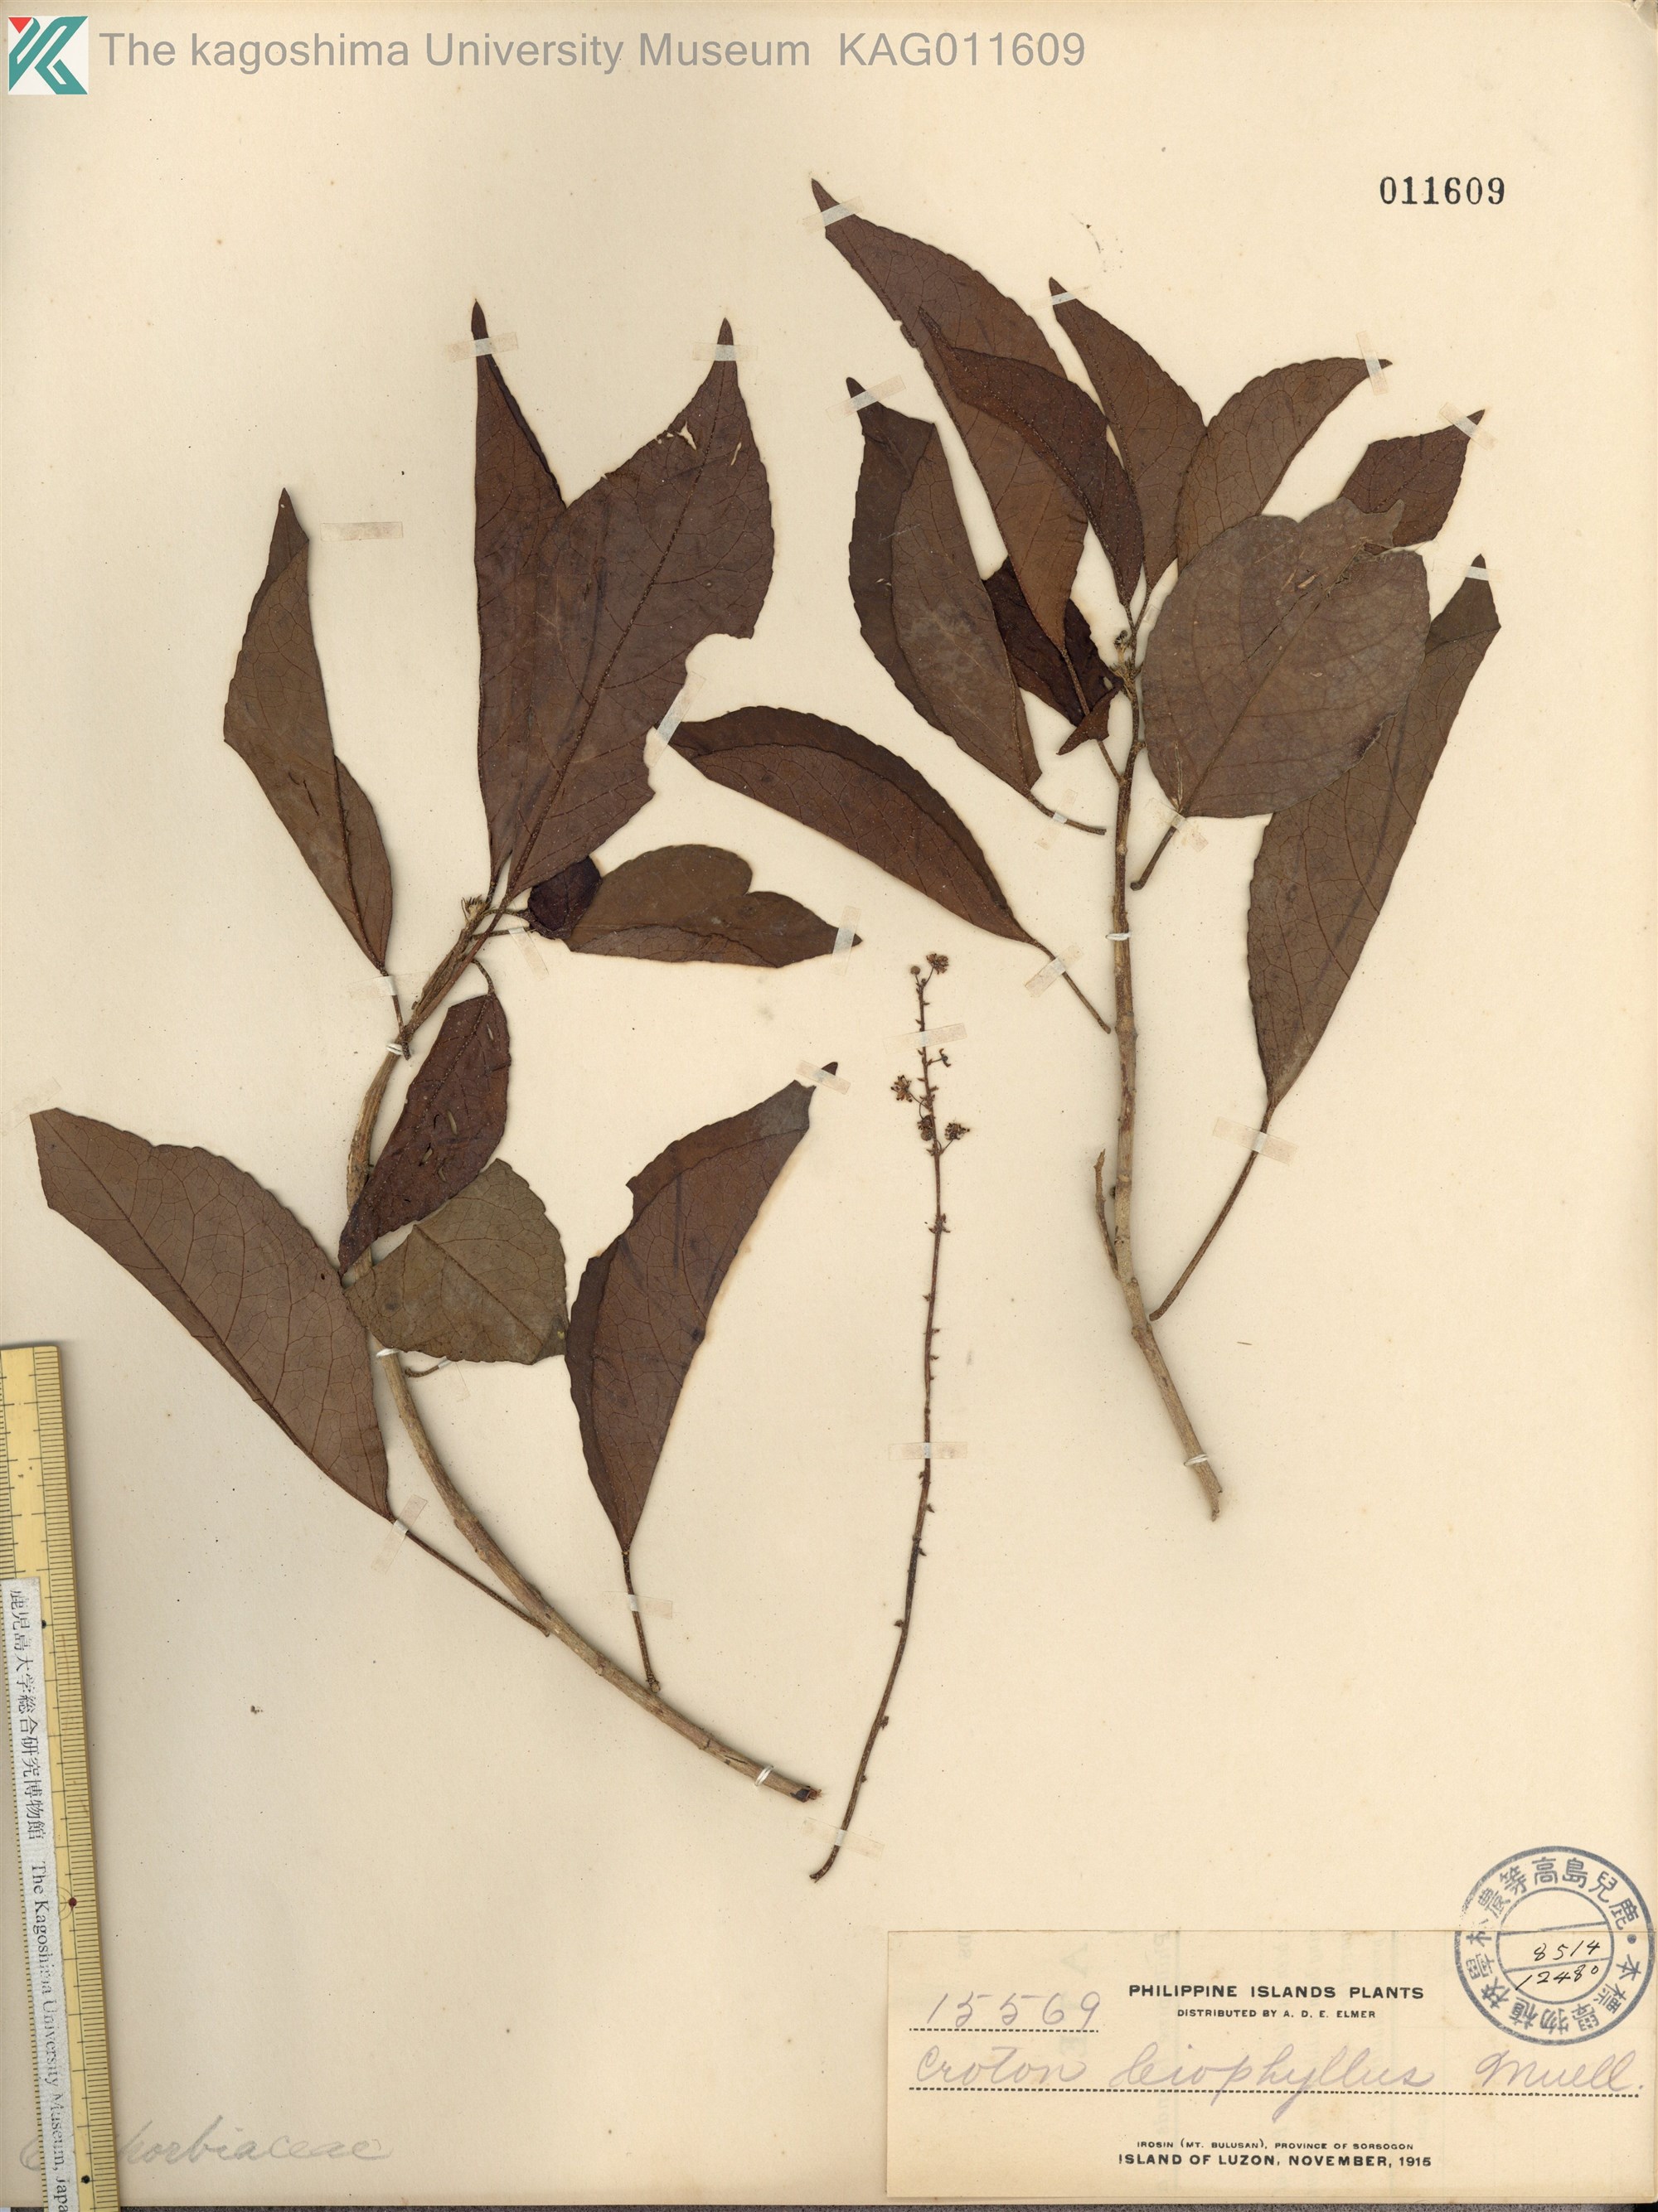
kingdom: Plantae
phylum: Tracheophyta
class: Magnoliopsida
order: Malpighiales
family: Euphorbiaceae
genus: Croton
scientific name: Croton leiophyllus
